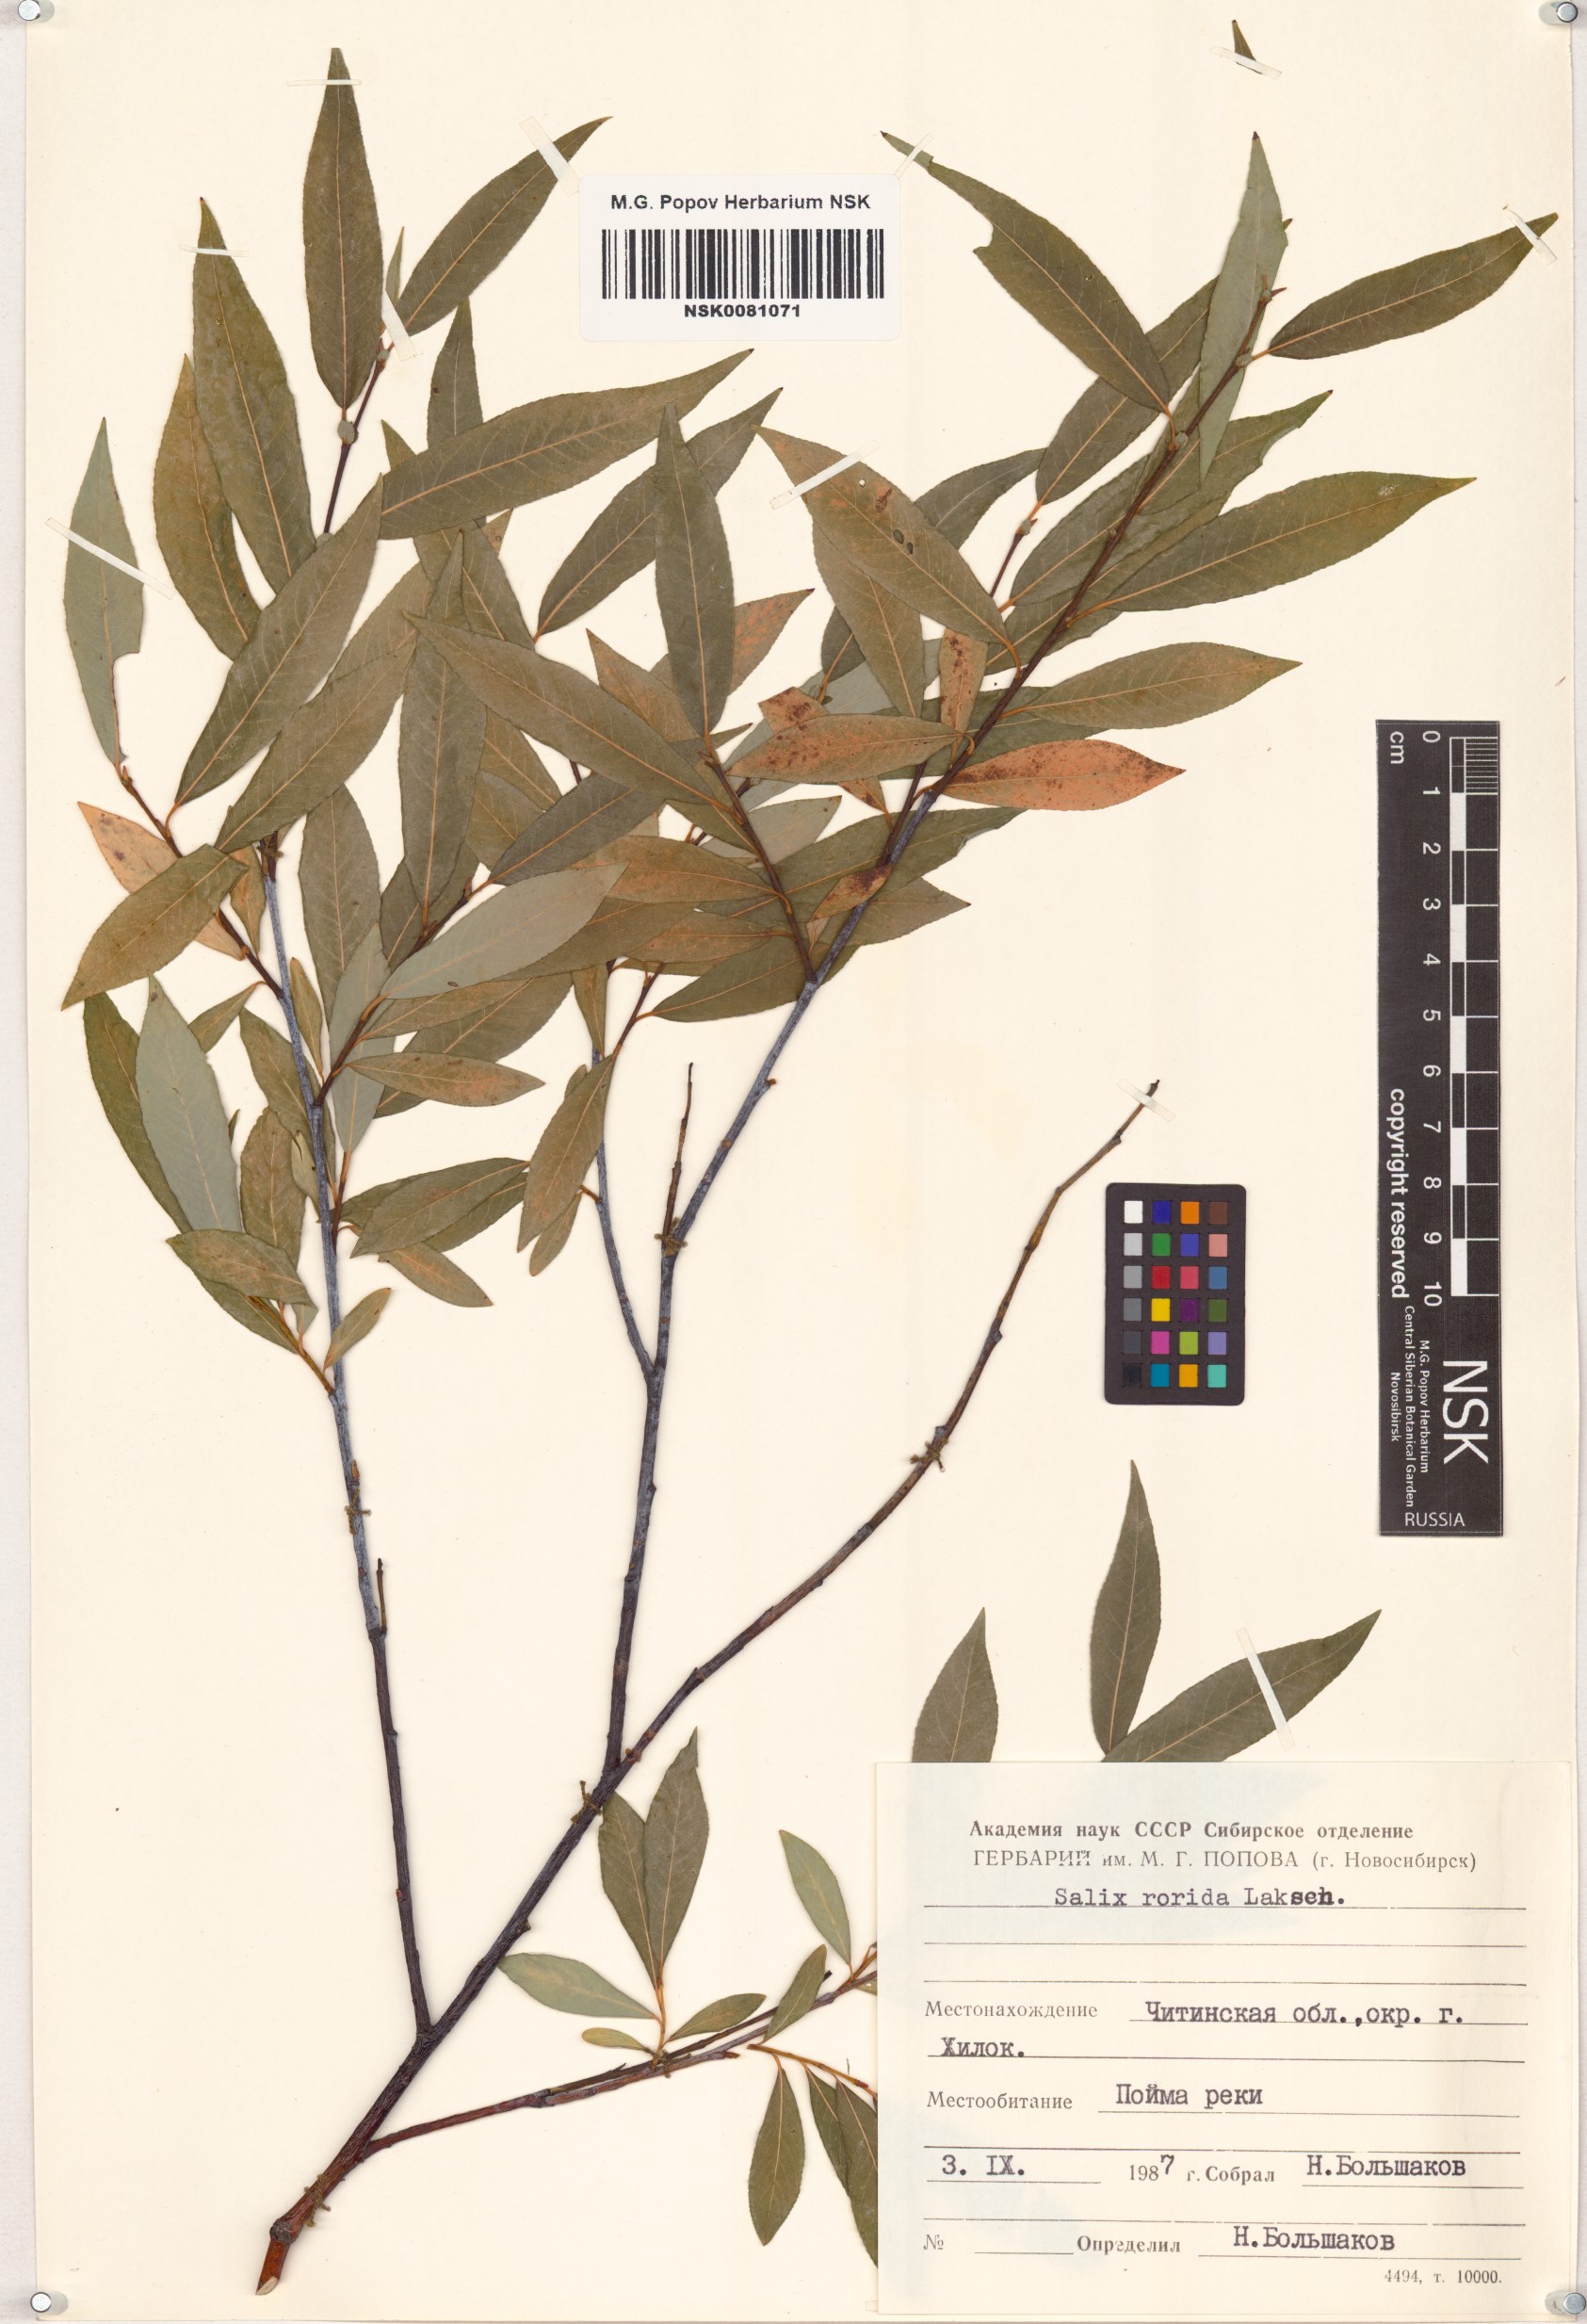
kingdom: Plantae
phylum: Tracheophyta
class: Magnoliopsida
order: Malpighiales
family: Salicaceae
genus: Salix
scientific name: Salix rorida
